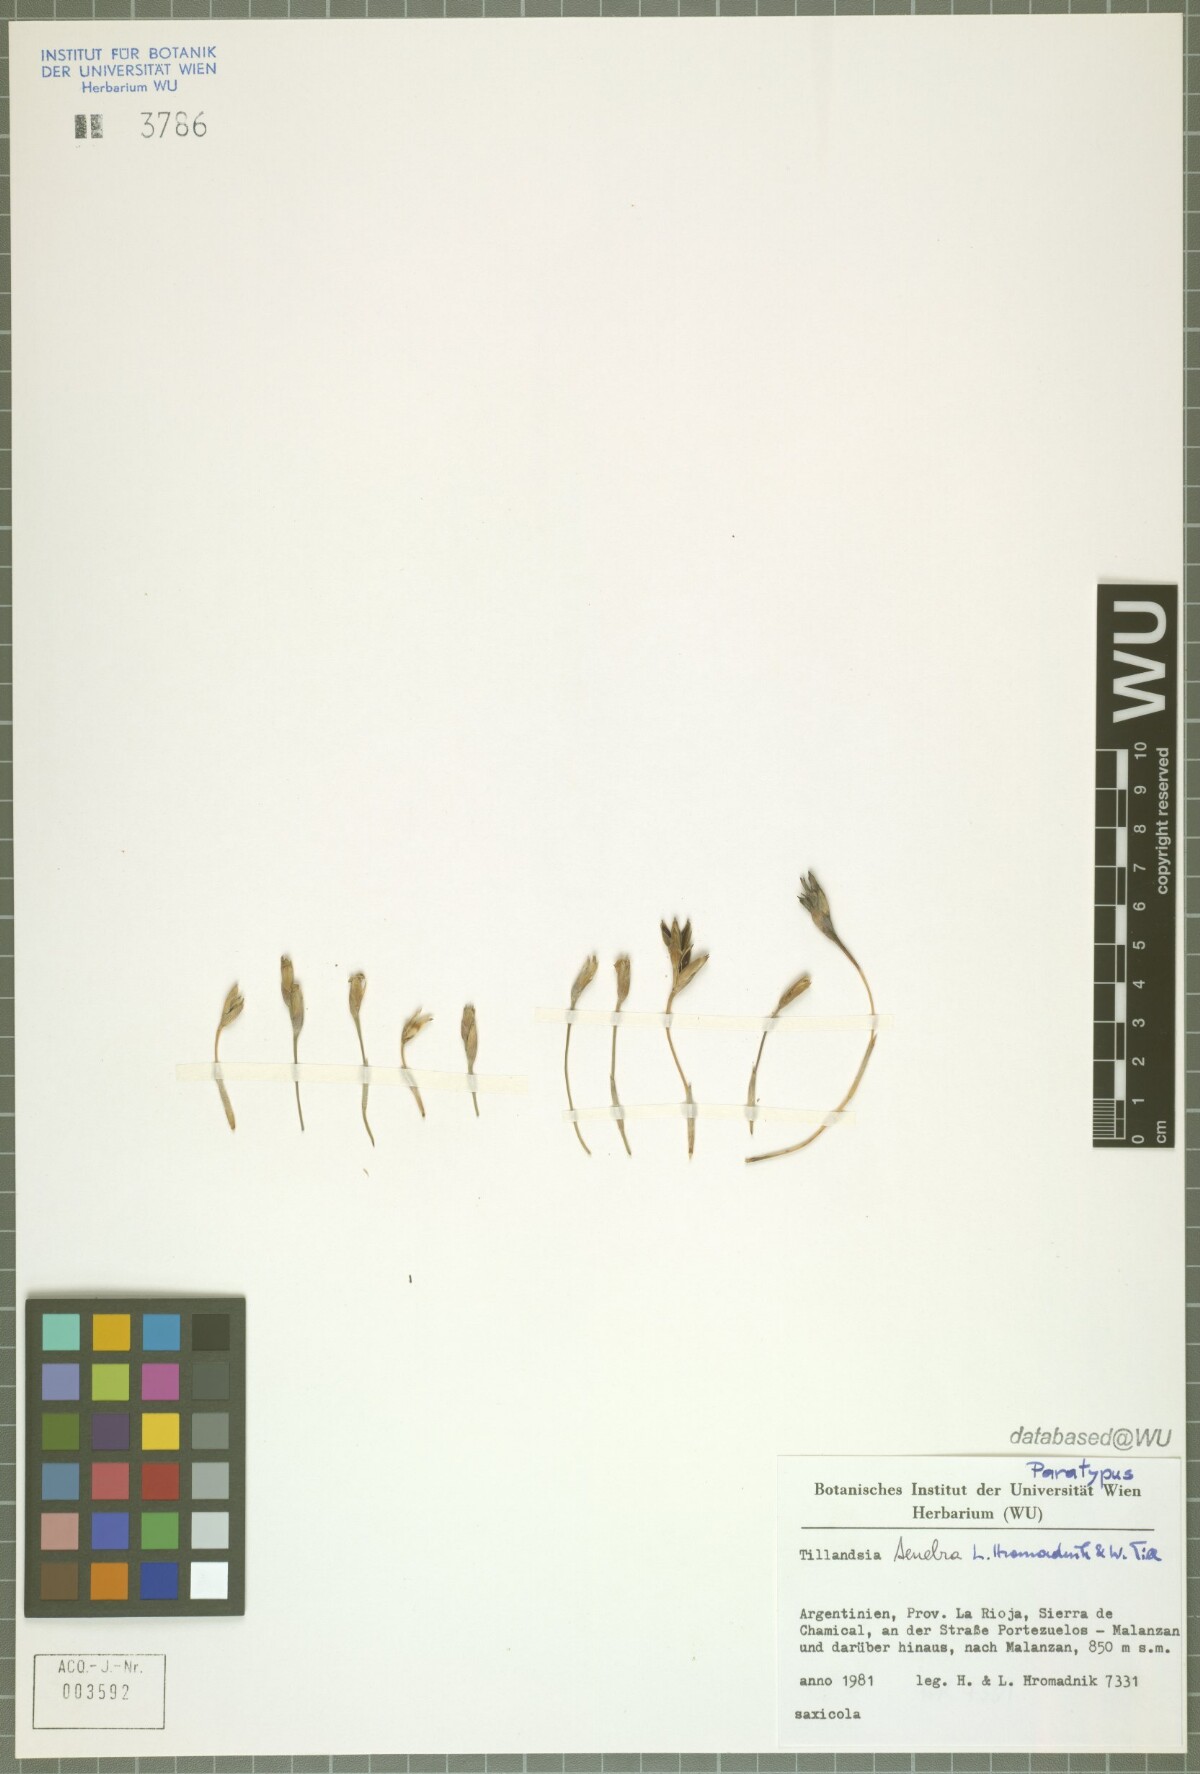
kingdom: Plantae
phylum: Tracheophyta
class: Liliopsida
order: Poales
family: Bromeliaceae
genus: Tillandsia
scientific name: Tillandsia tenebra
